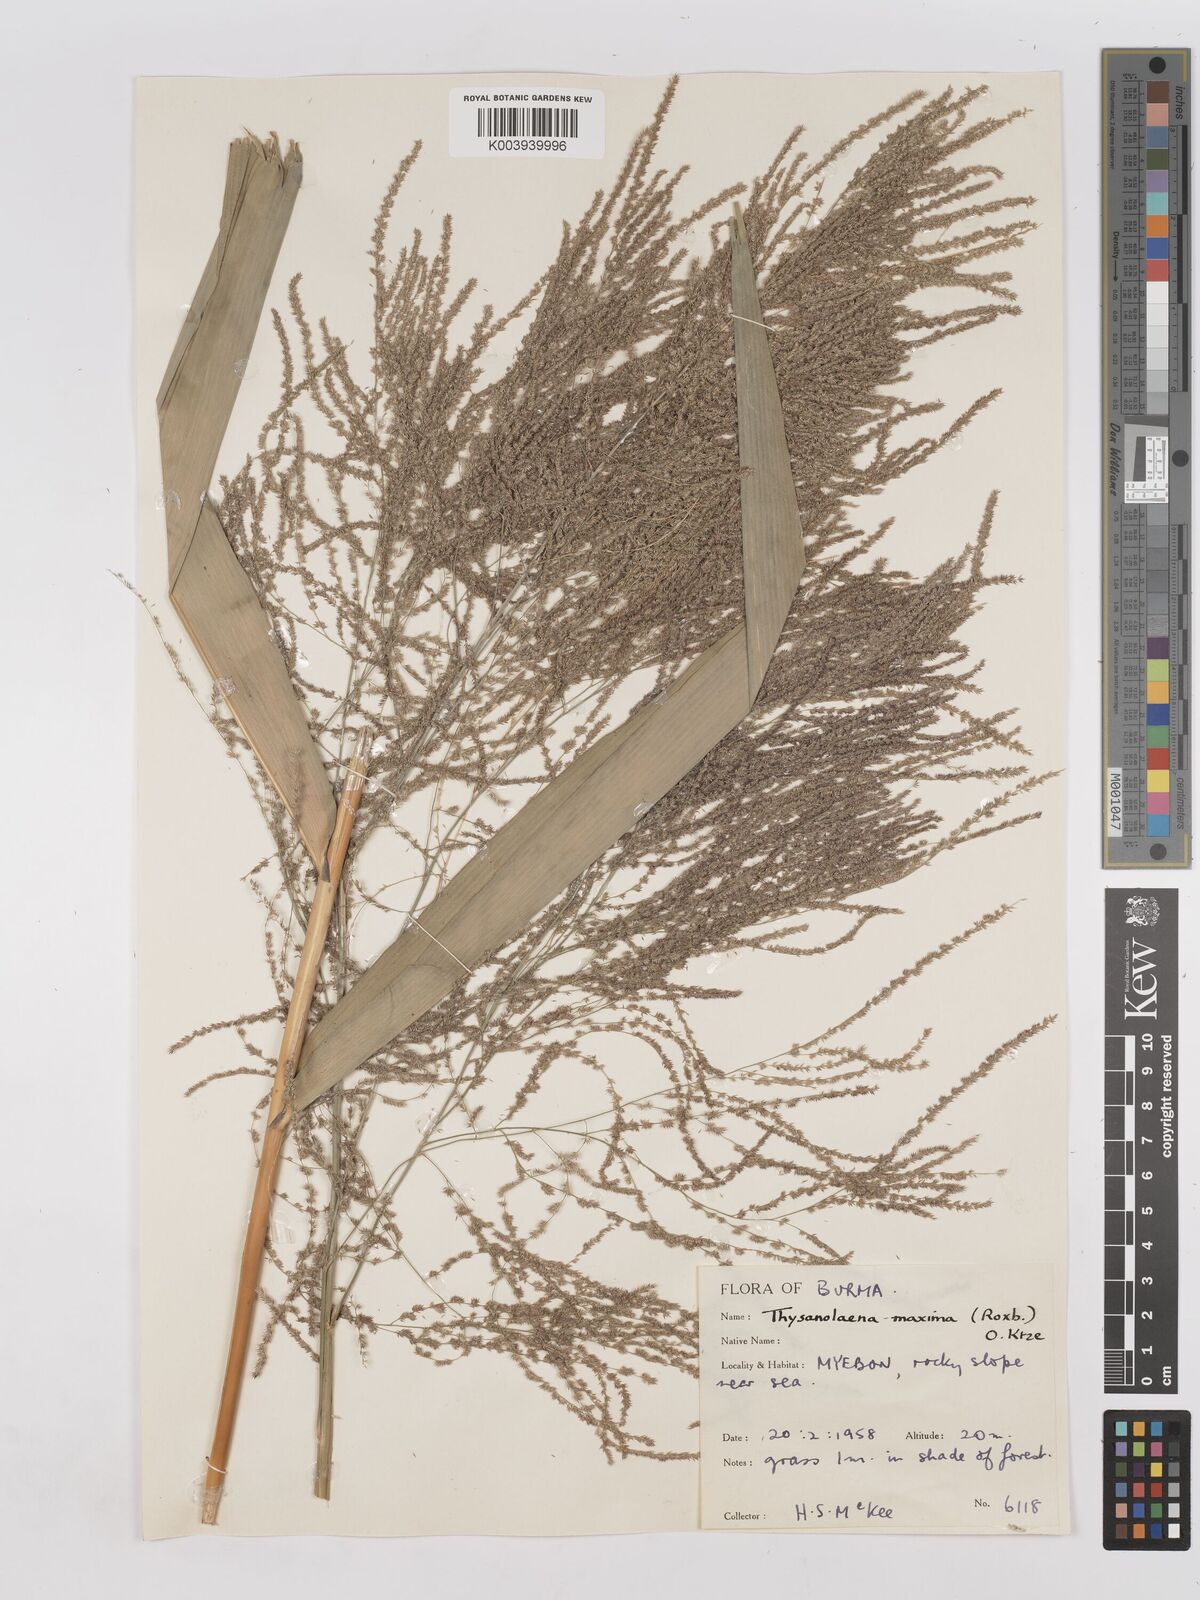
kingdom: Plantae
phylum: Tracheophyta
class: Liliopsida
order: Poales
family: Poaceae
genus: Thysanolaena
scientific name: Thysanolaena latifolia
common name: Tiger grass
